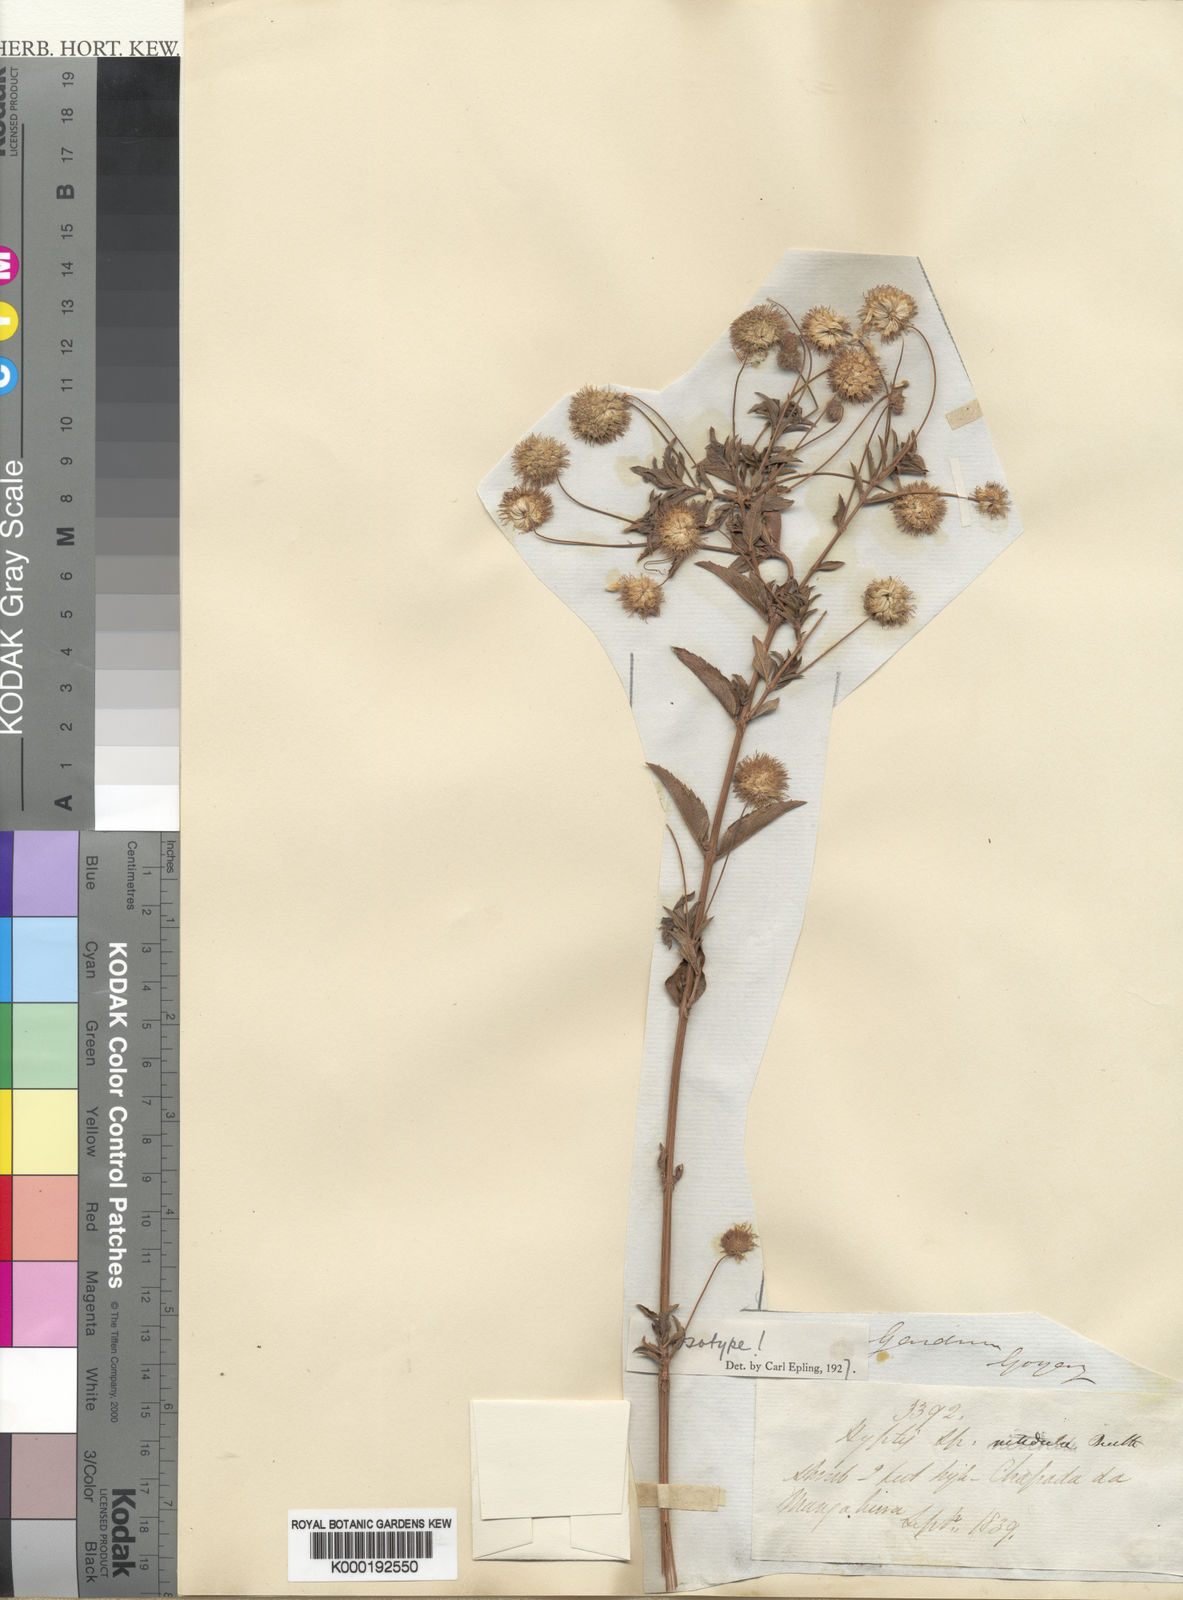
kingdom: Plantae
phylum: Tracheophyta
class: Magnoliopsida
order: Lamiales
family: Lamiaceae
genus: Cyanocephalus
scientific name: Cyanocephalus nitidulus
